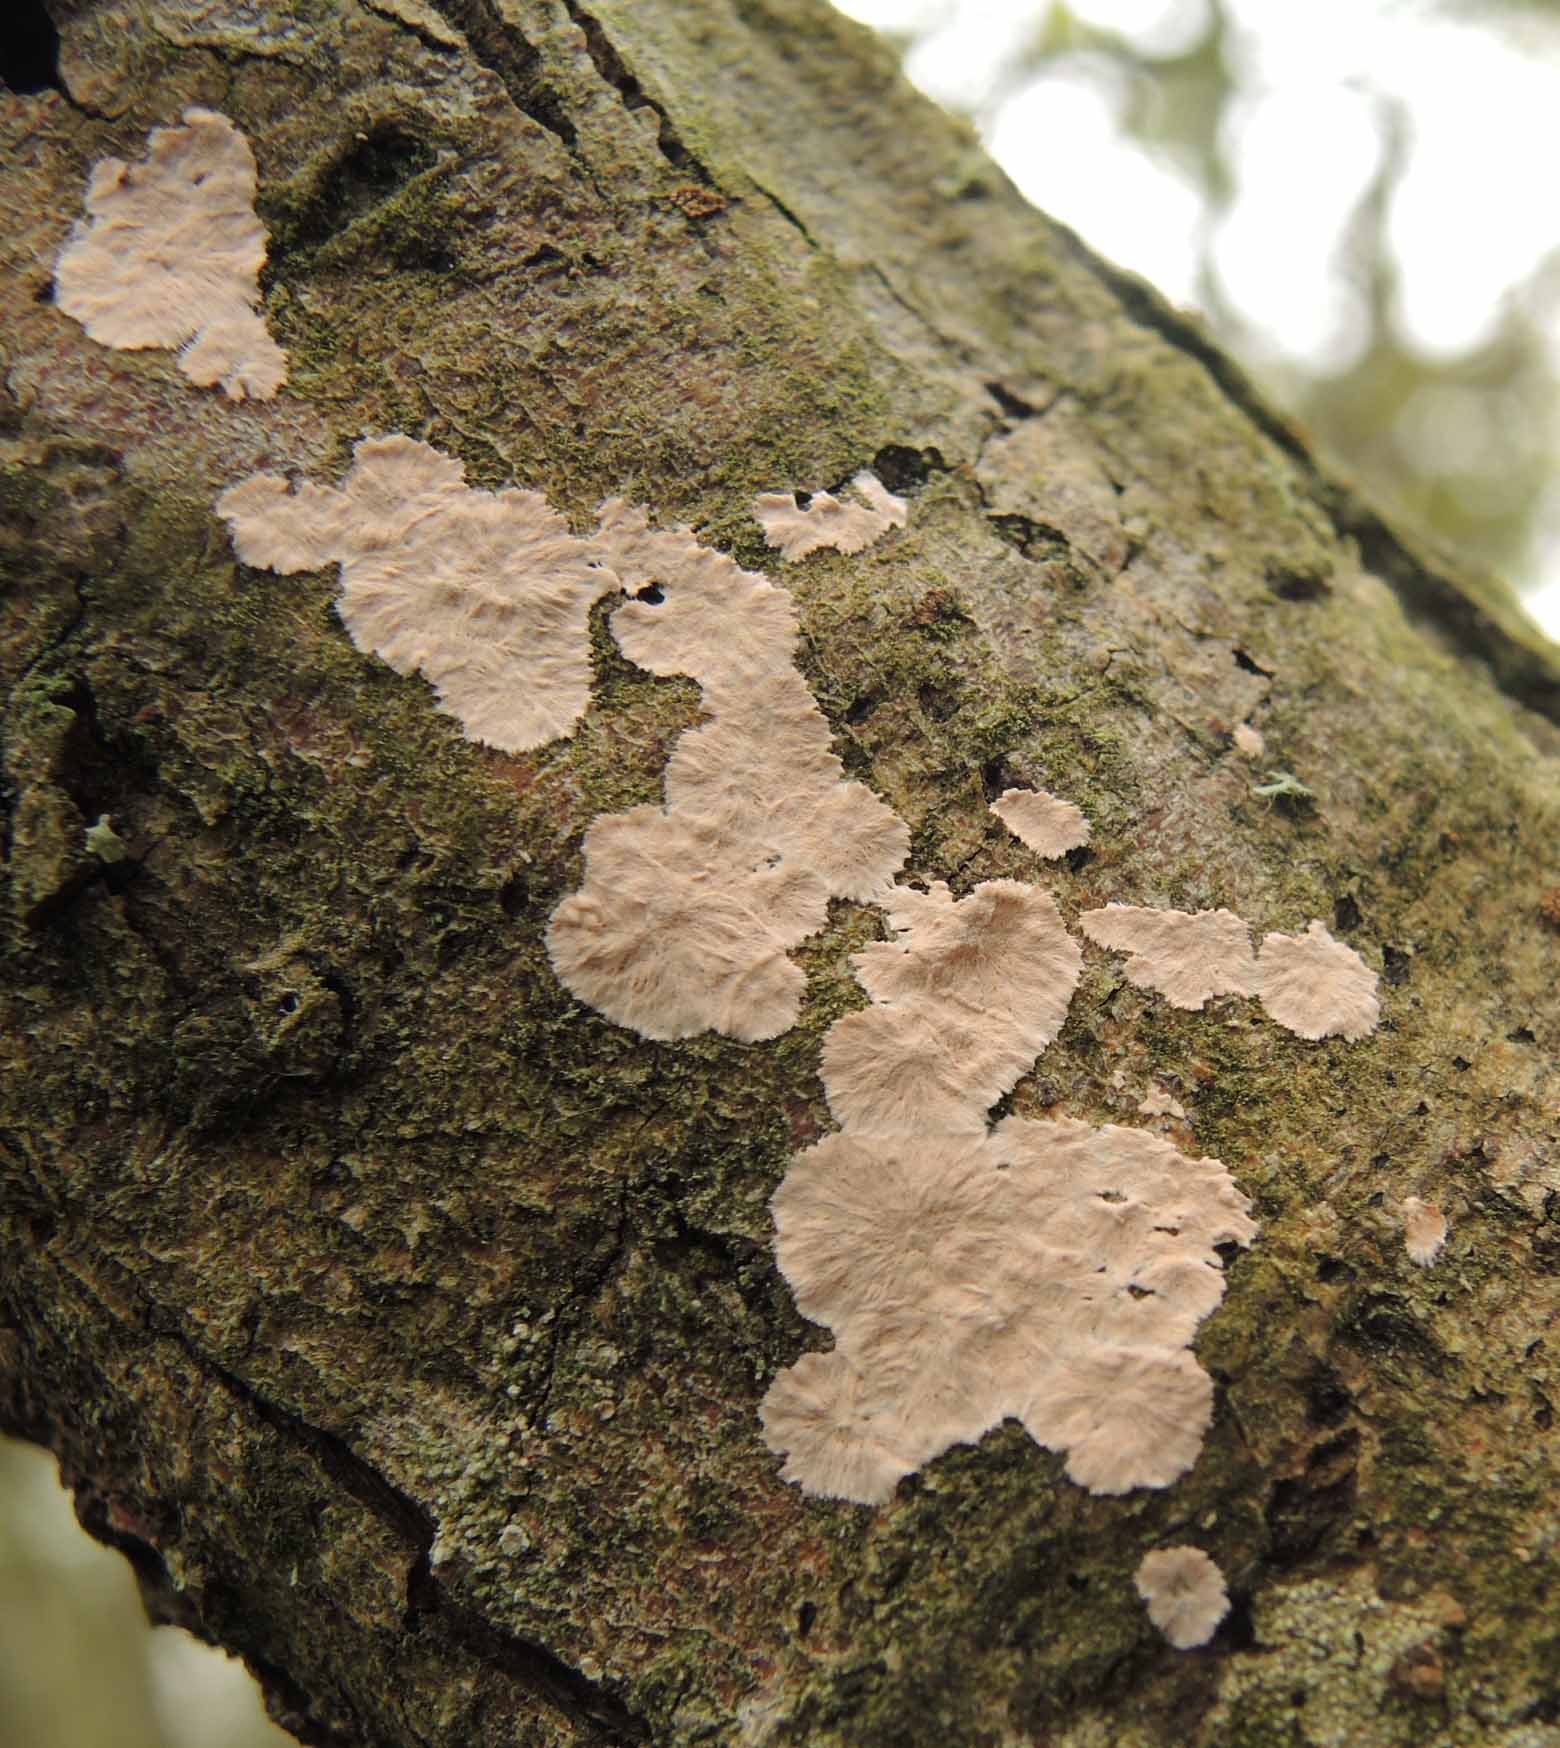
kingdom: Fungi
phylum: Basidiomycota
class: Agaricomycetes
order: Corticiales
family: Corticiaceae
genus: Corticium
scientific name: Corticium roseum
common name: rosa barkskind
